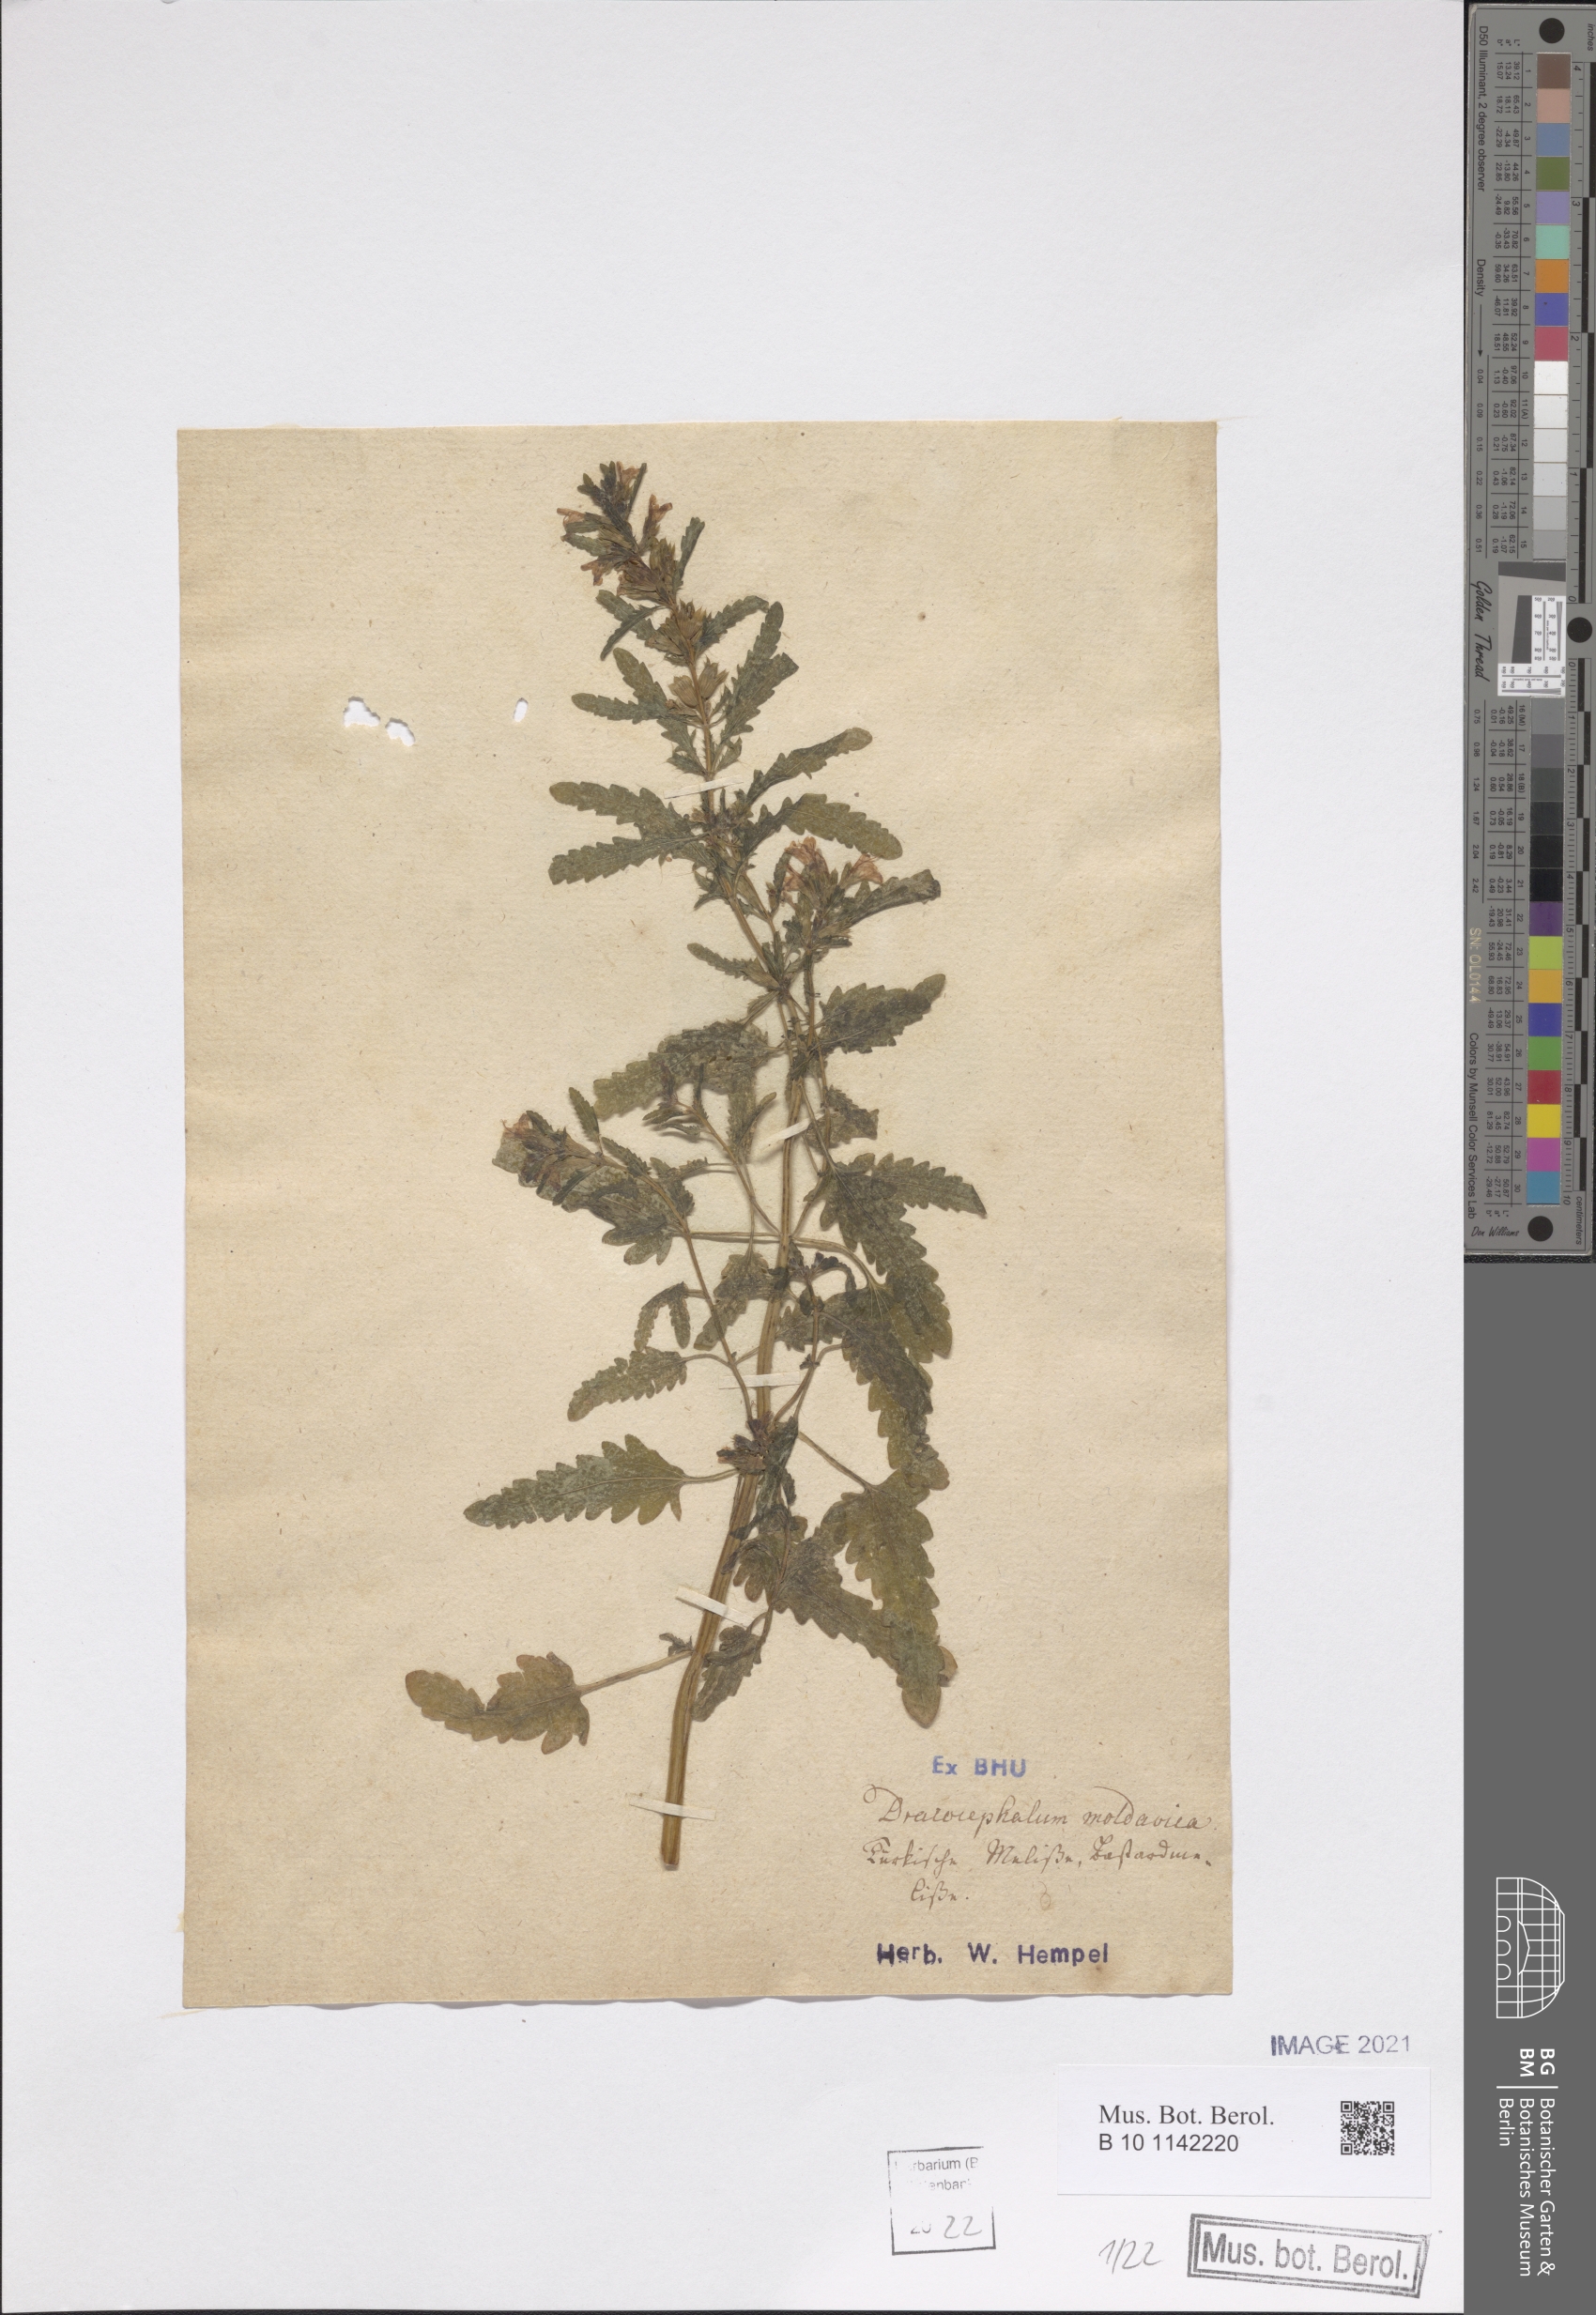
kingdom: Plantae
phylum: Tracheophyta
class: Magnoliopsida
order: Lamiales
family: Lamiaceae
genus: Dracocephalum
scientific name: Dracocephalum moldavica
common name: Moldavian dragonhead
